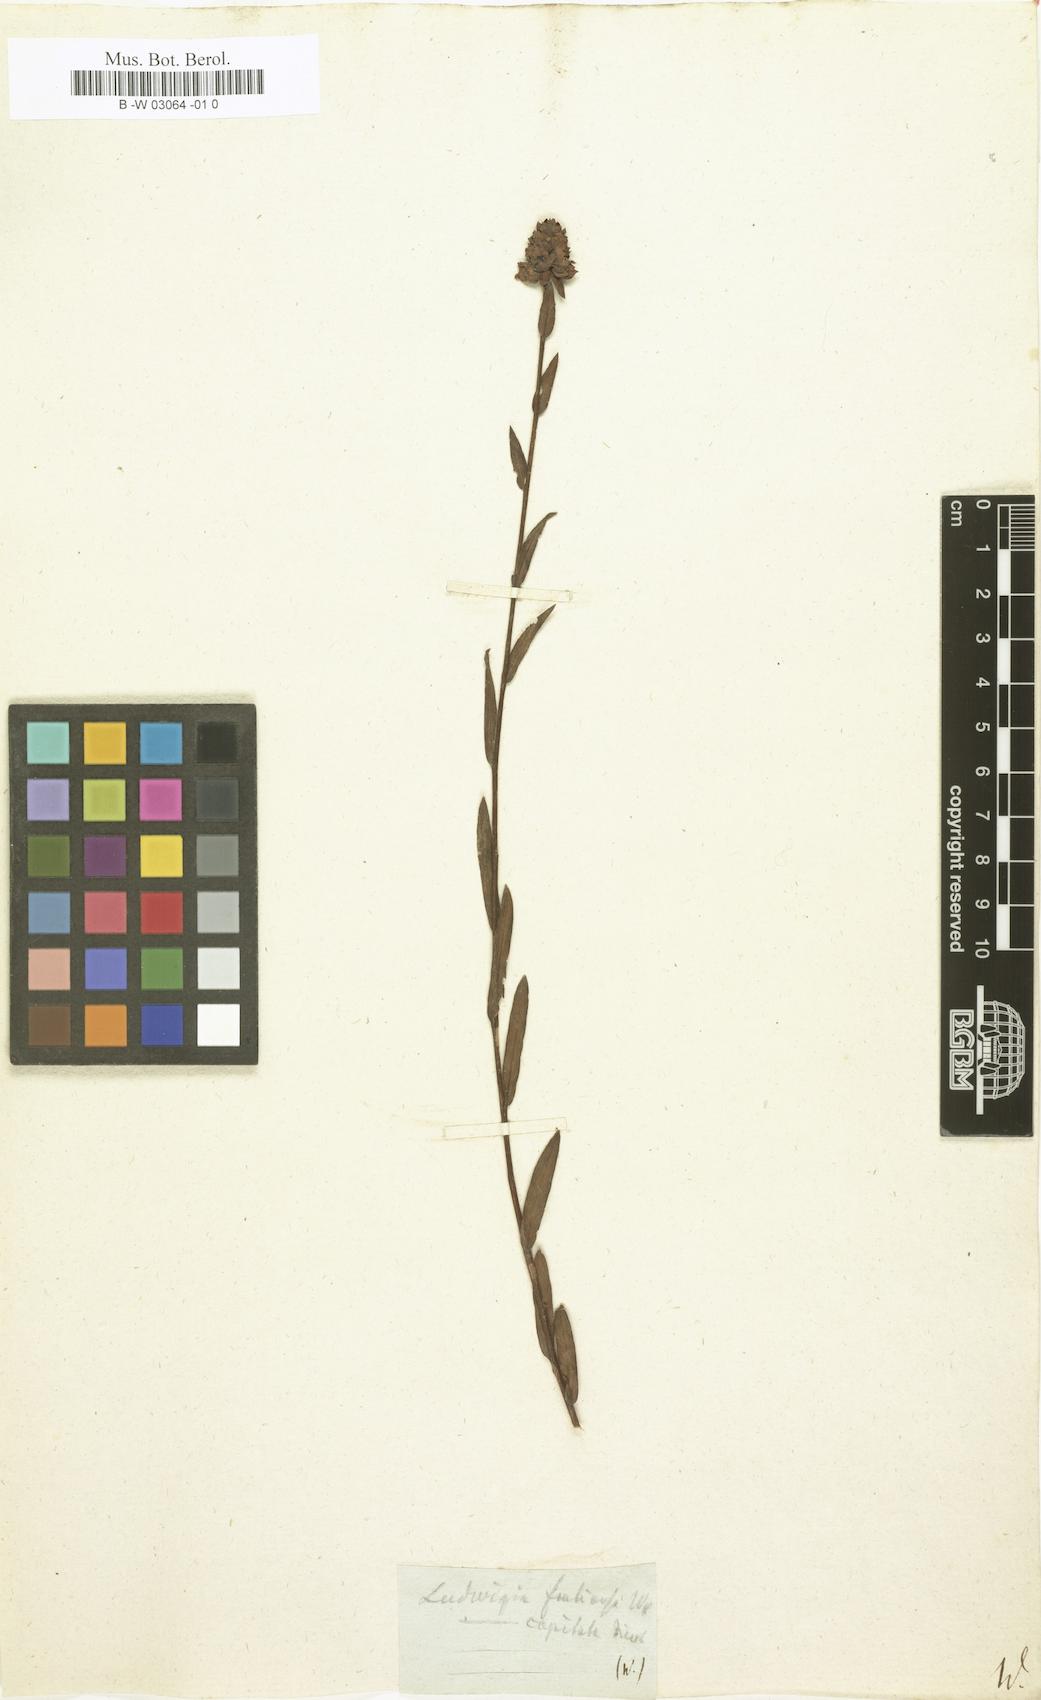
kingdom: Plantae
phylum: Tracheophyta
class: Magnoliopsida
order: Myrtales
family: Onagraceae
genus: Ludwigia
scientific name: Ludwigia prostrata
